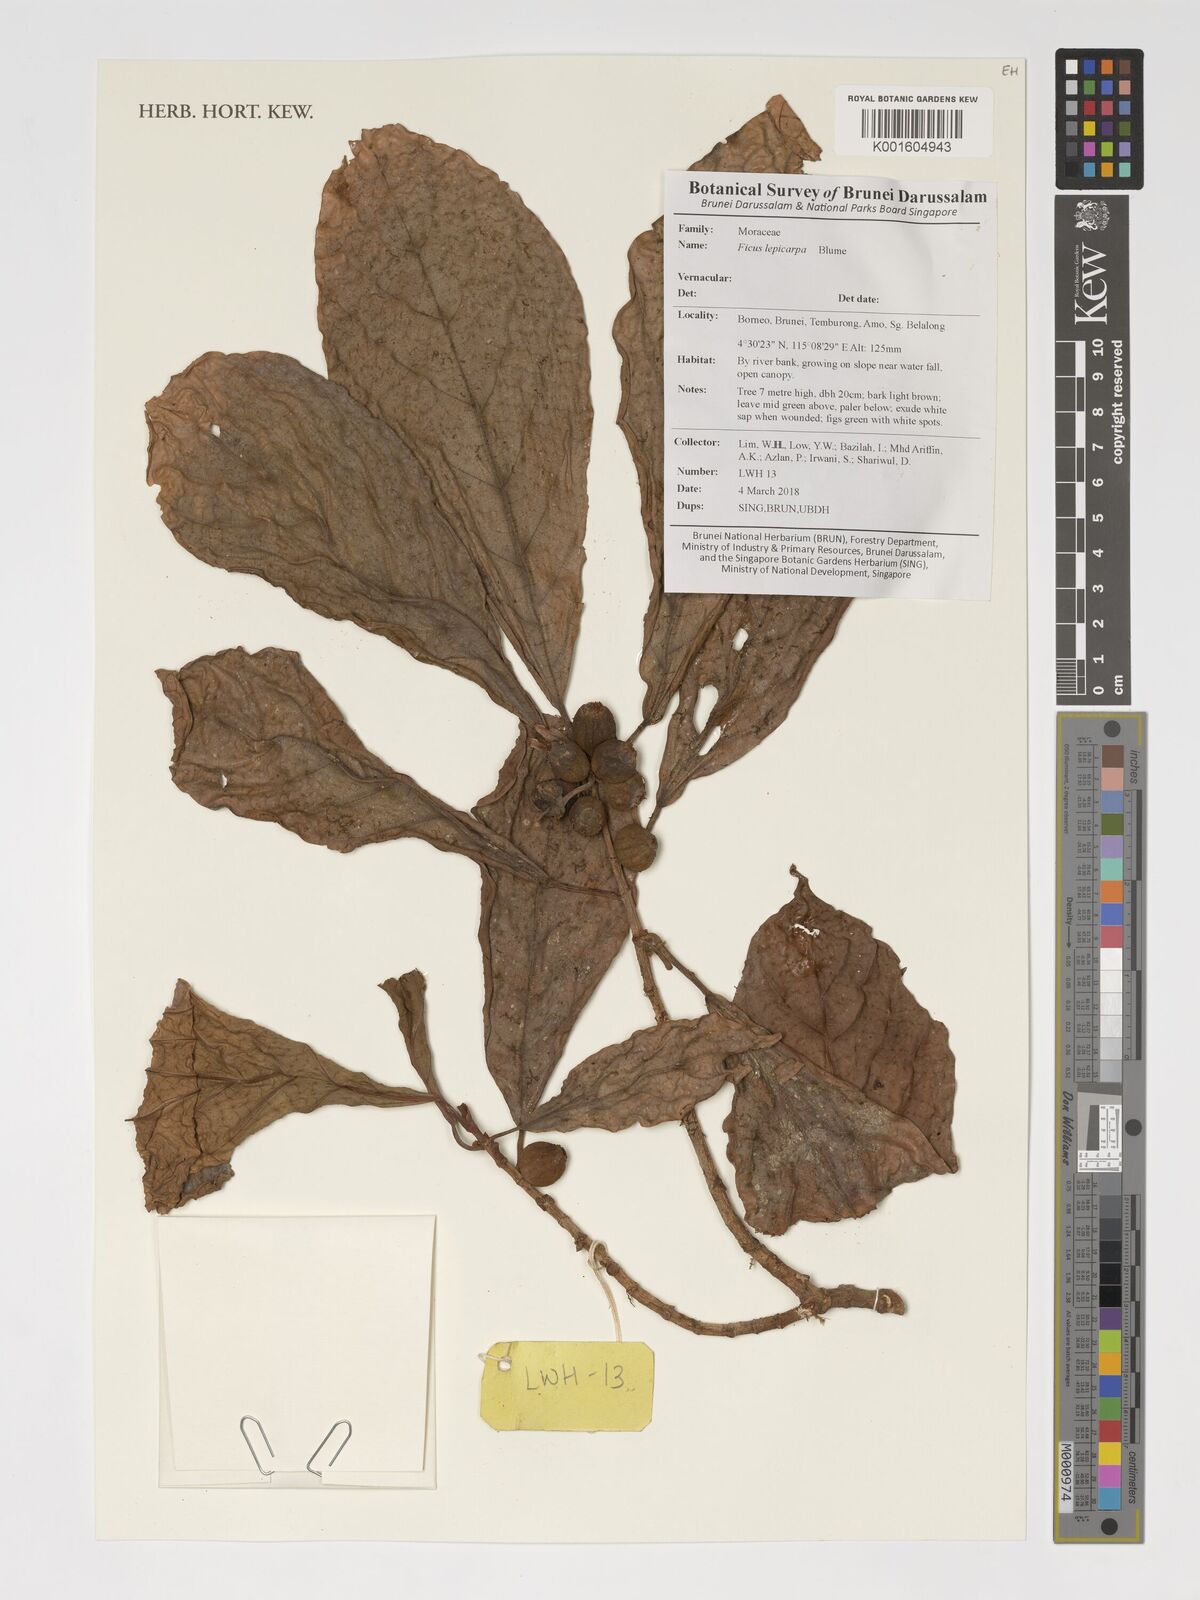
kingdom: Plantae
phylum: Tracheophyta
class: Magnoliopsida
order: Rosales
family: Moraceae
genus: Ficus
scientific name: Ficus lepicarpa
